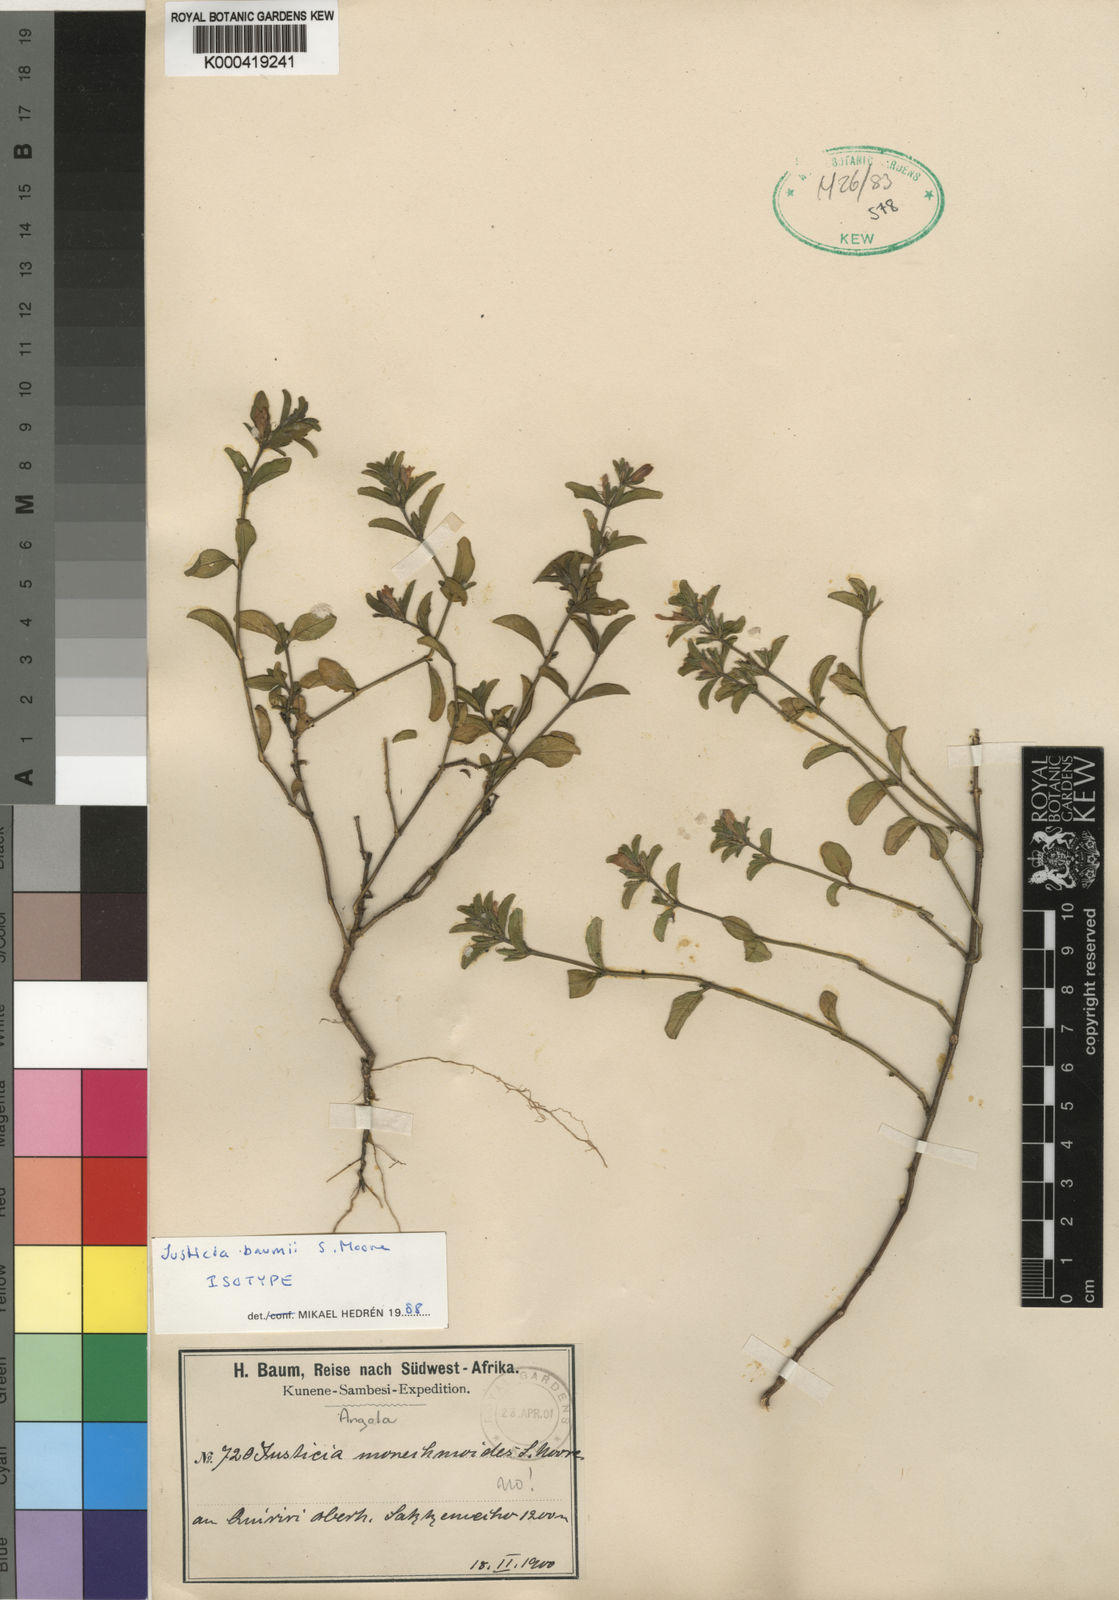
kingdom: Plantae
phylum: Tracheophyta
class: Magnoliopsida
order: Lamiales
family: Acanthaceae
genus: Justicia
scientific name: Justicia
